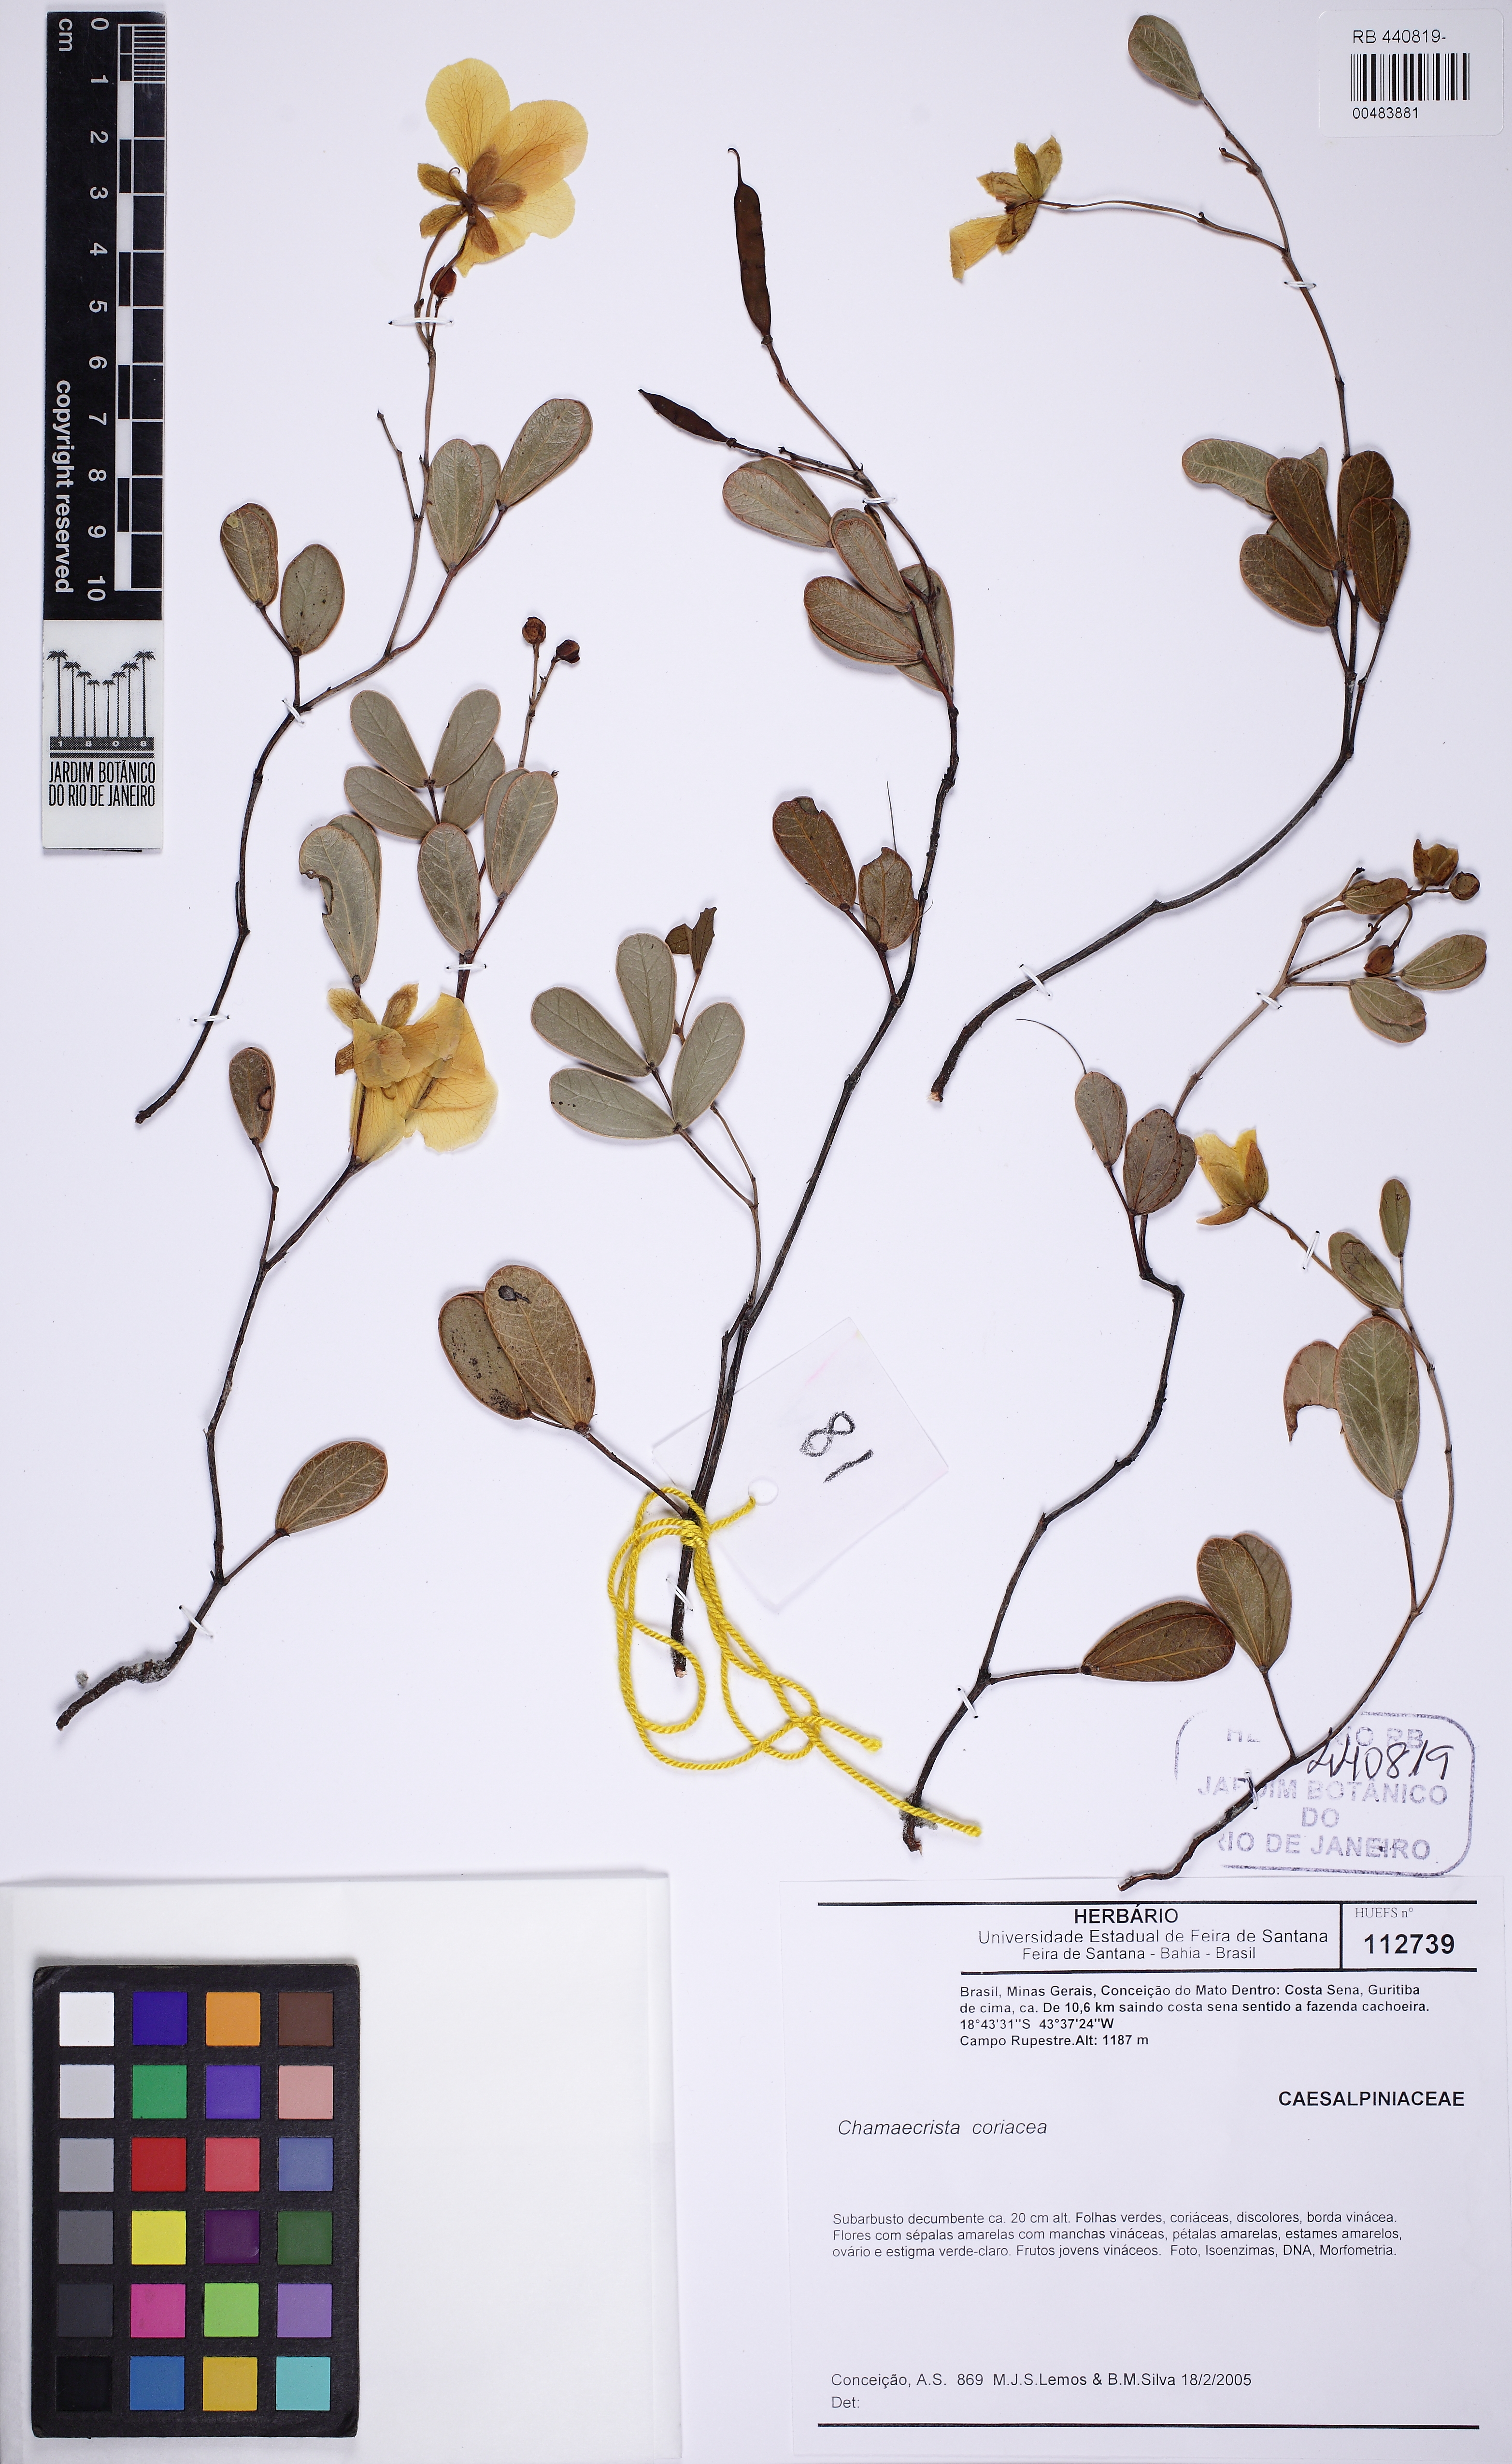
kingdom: Plantae
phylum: Tracheophyta
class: Magnoliopsida
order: Fabales
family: Fabaceae
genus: Chamaecrista
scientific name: Chamaecrista coriacea
